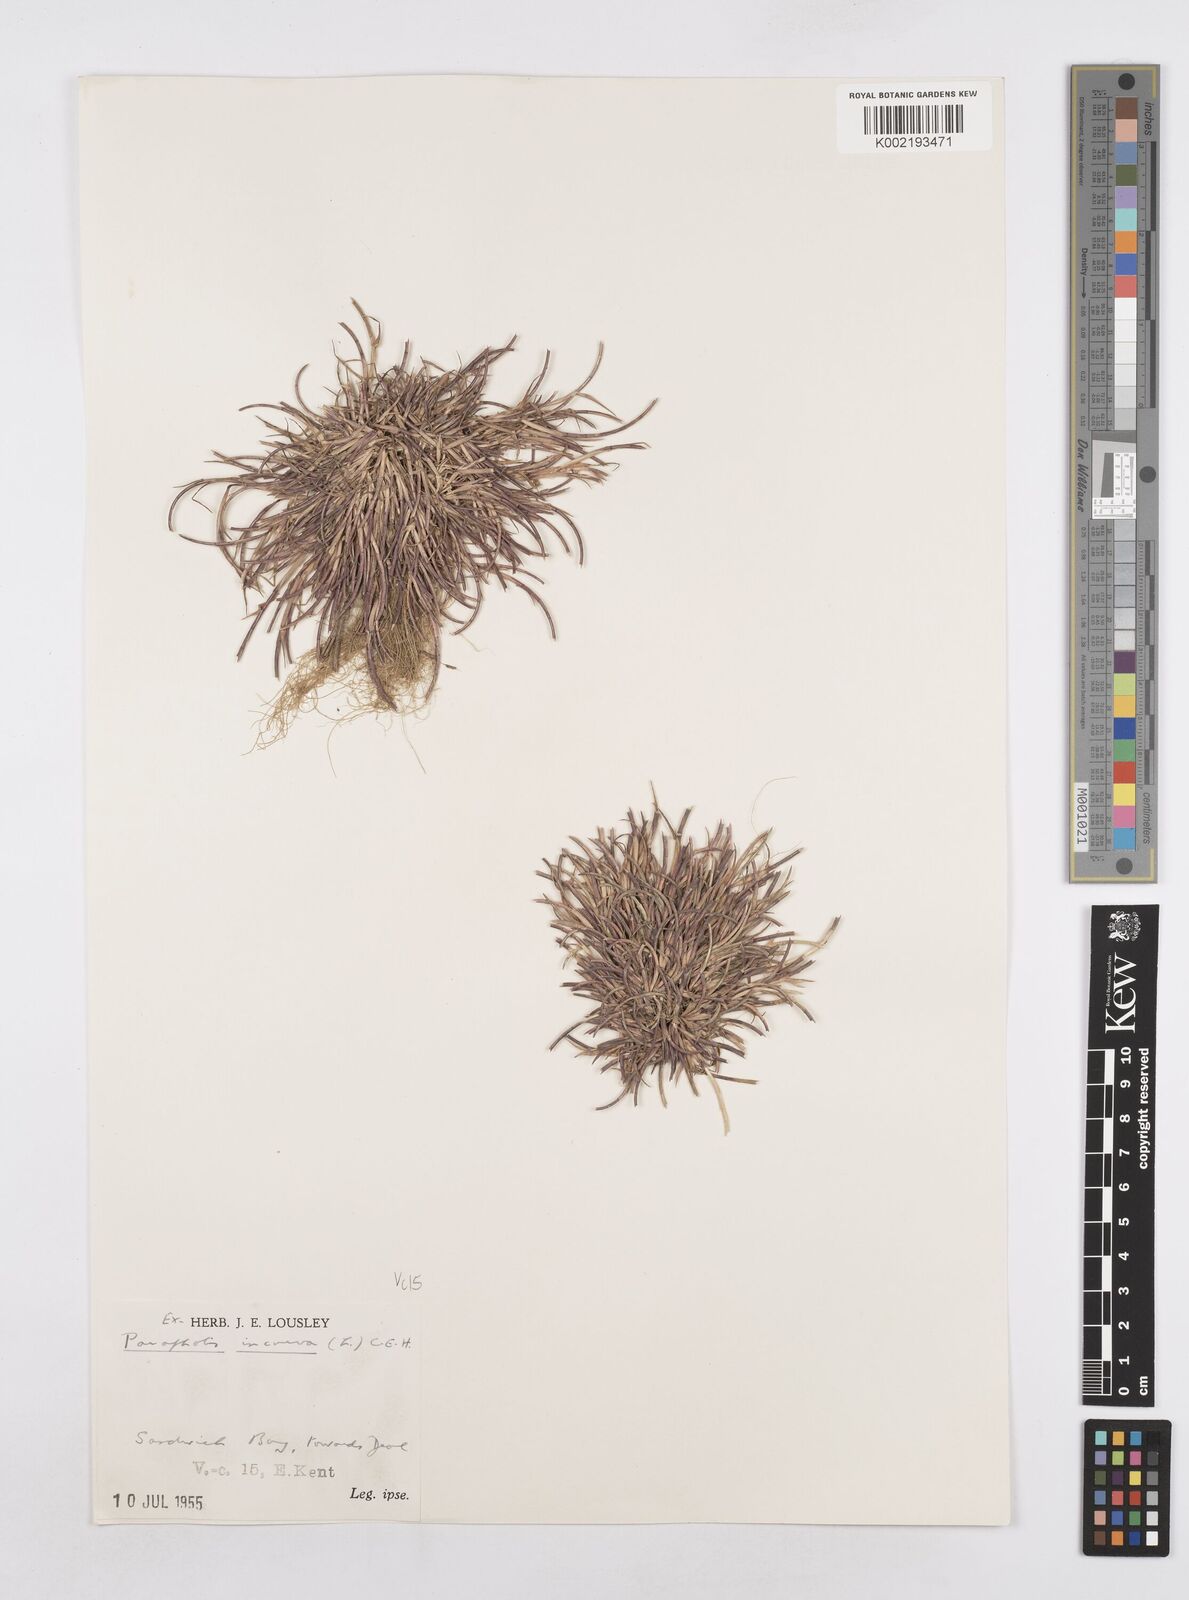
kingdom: Plantae
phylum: Tracheophyta
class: Liliopsida
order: Poales
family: Poaceae
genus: Parapholis
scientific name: Parapholis incurva
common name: Curved sicklegrass
